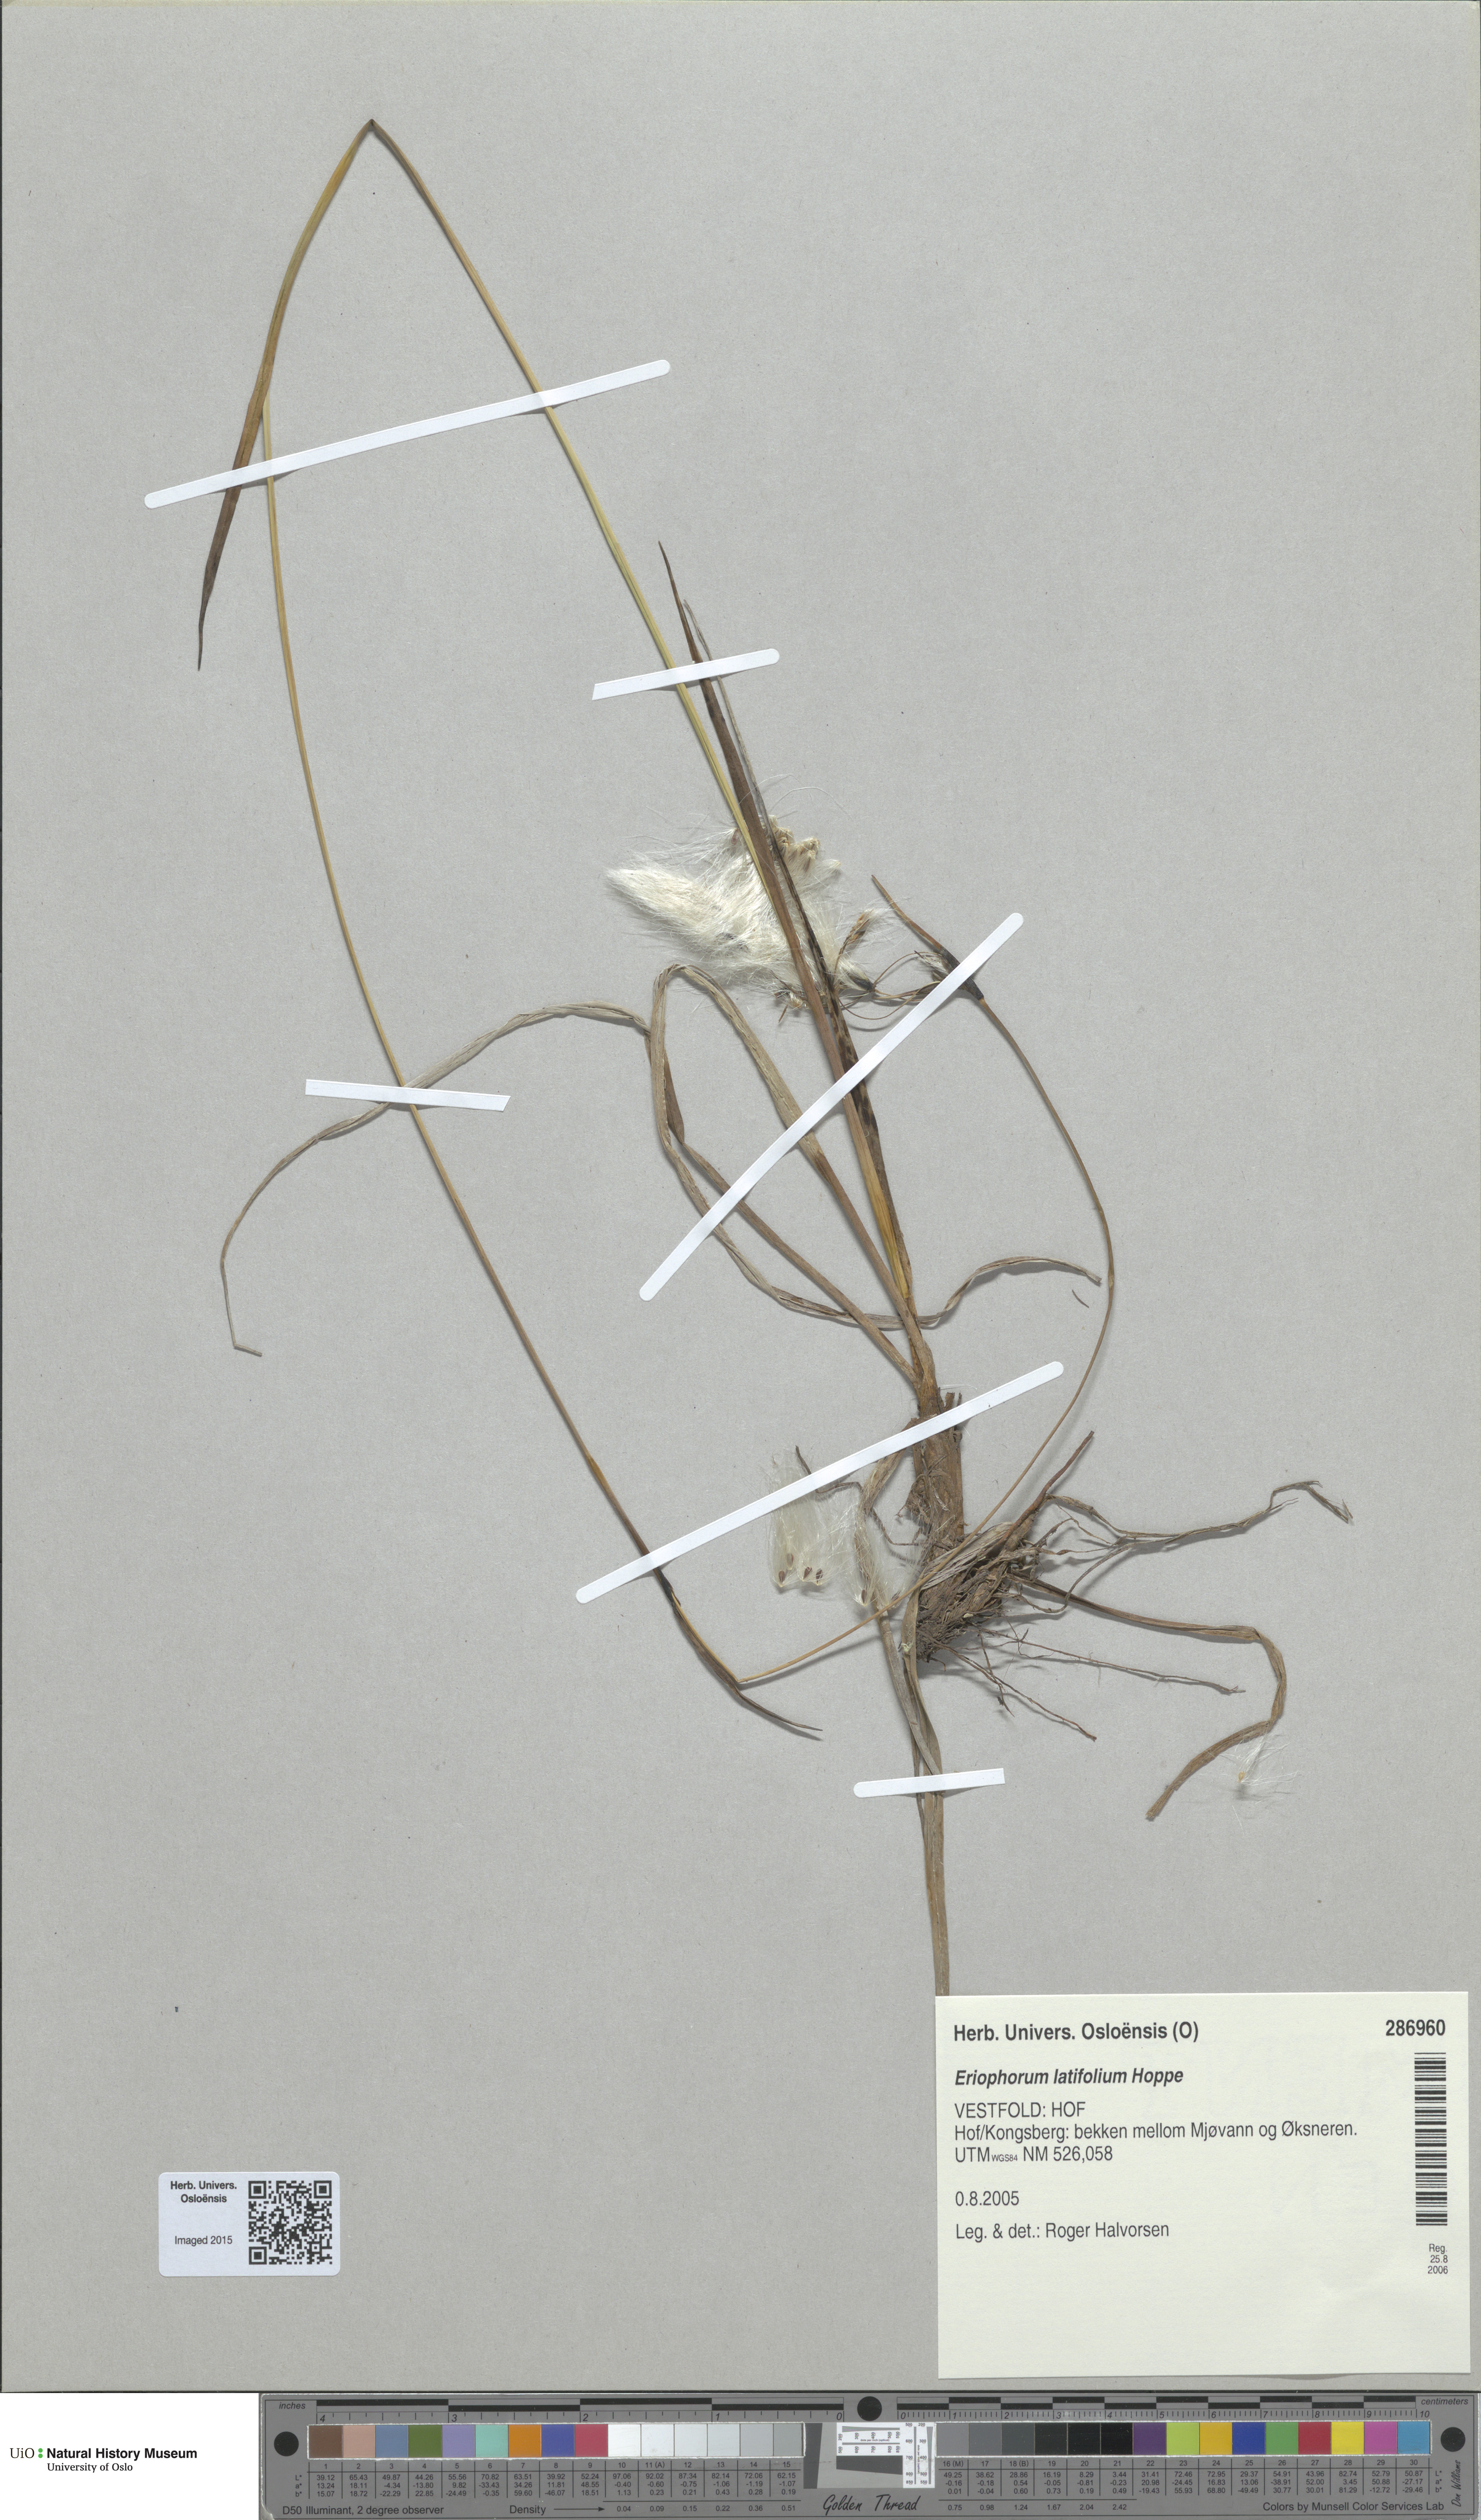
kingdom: Plantae
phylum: Tracheophyta
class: Liliopsida
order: Poales
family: Cyperaceae
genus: Eriophorum
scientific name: Eriophorum latifolium
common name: Broad-leaved cottongrass
